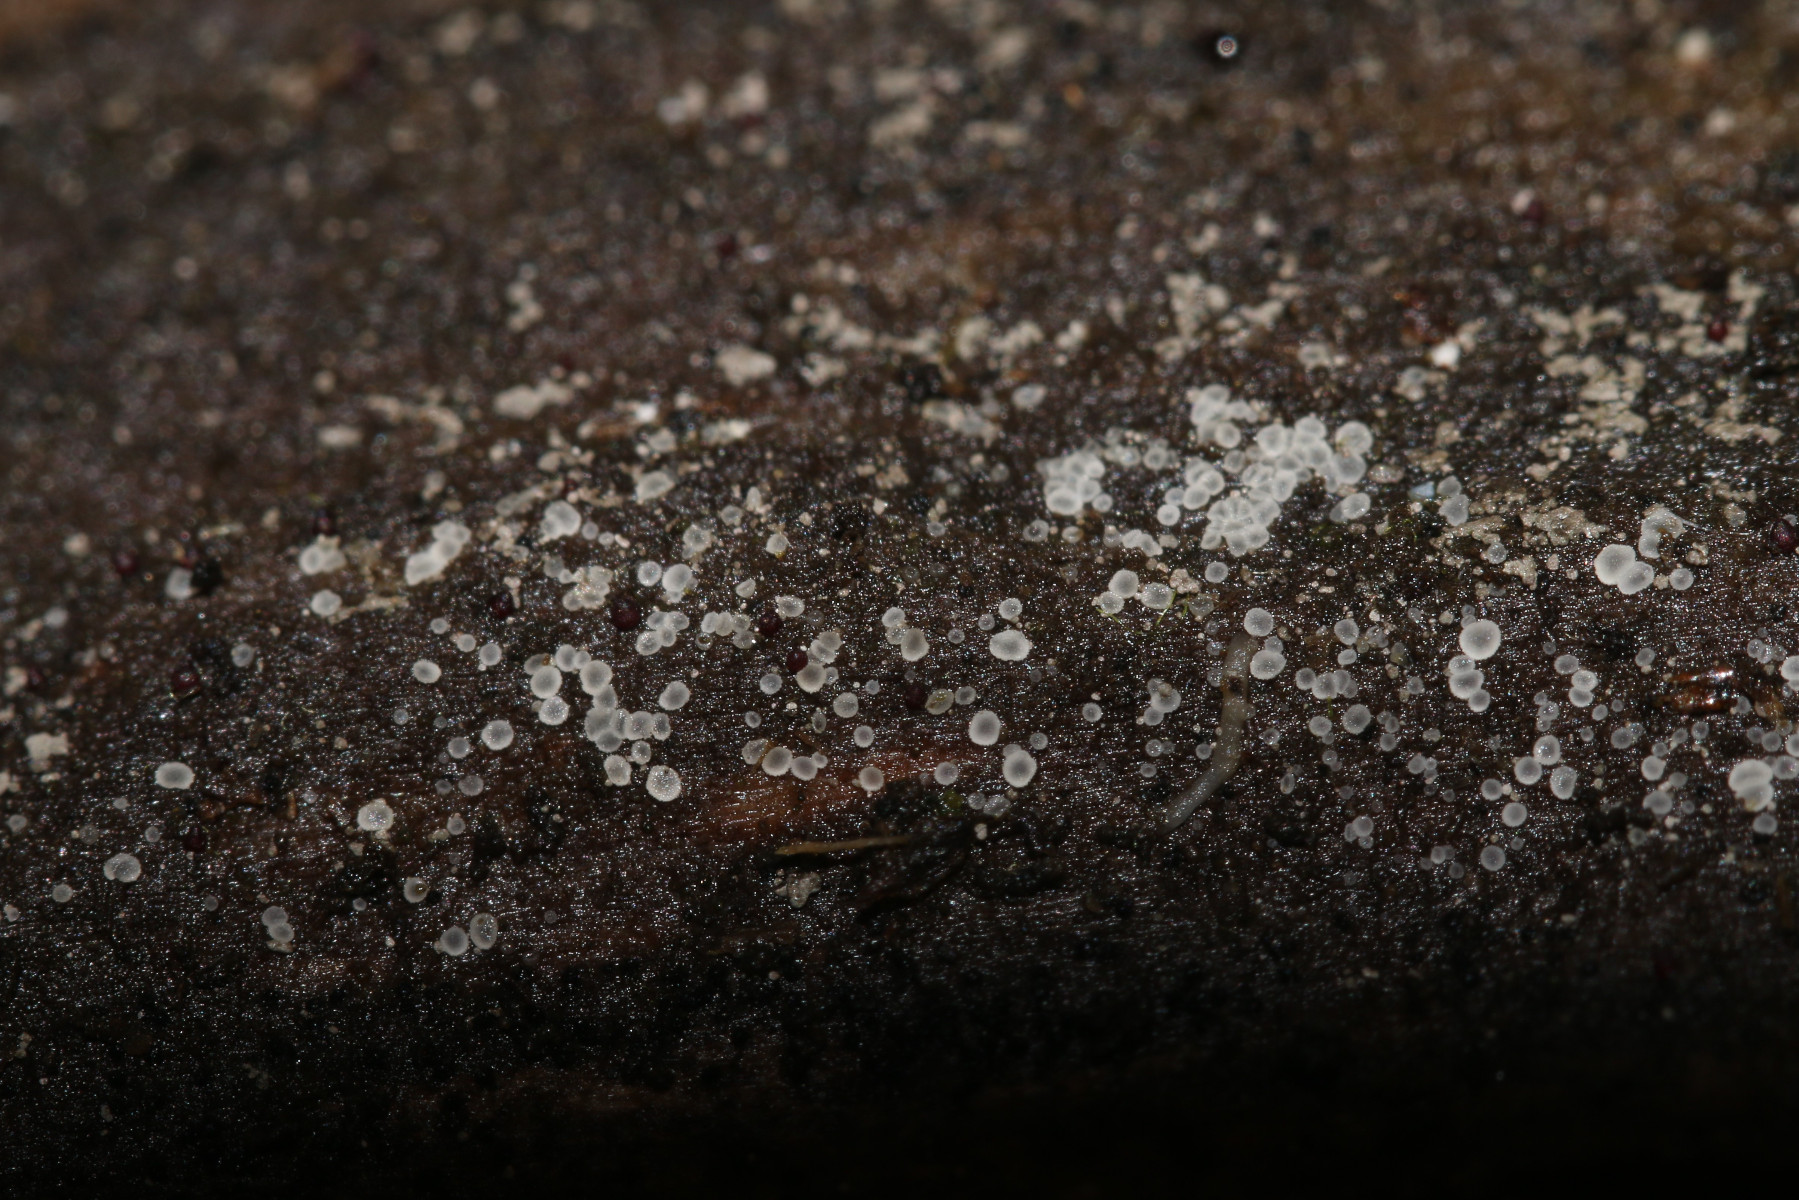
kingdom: Fungi
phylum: Ascomycota
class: Leotiomycetes
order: Helotiales
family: Hyaloscyphaceae
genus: Hyaloscypha
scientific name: Hyaloscypha leucostigma
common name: hvid klarskive
